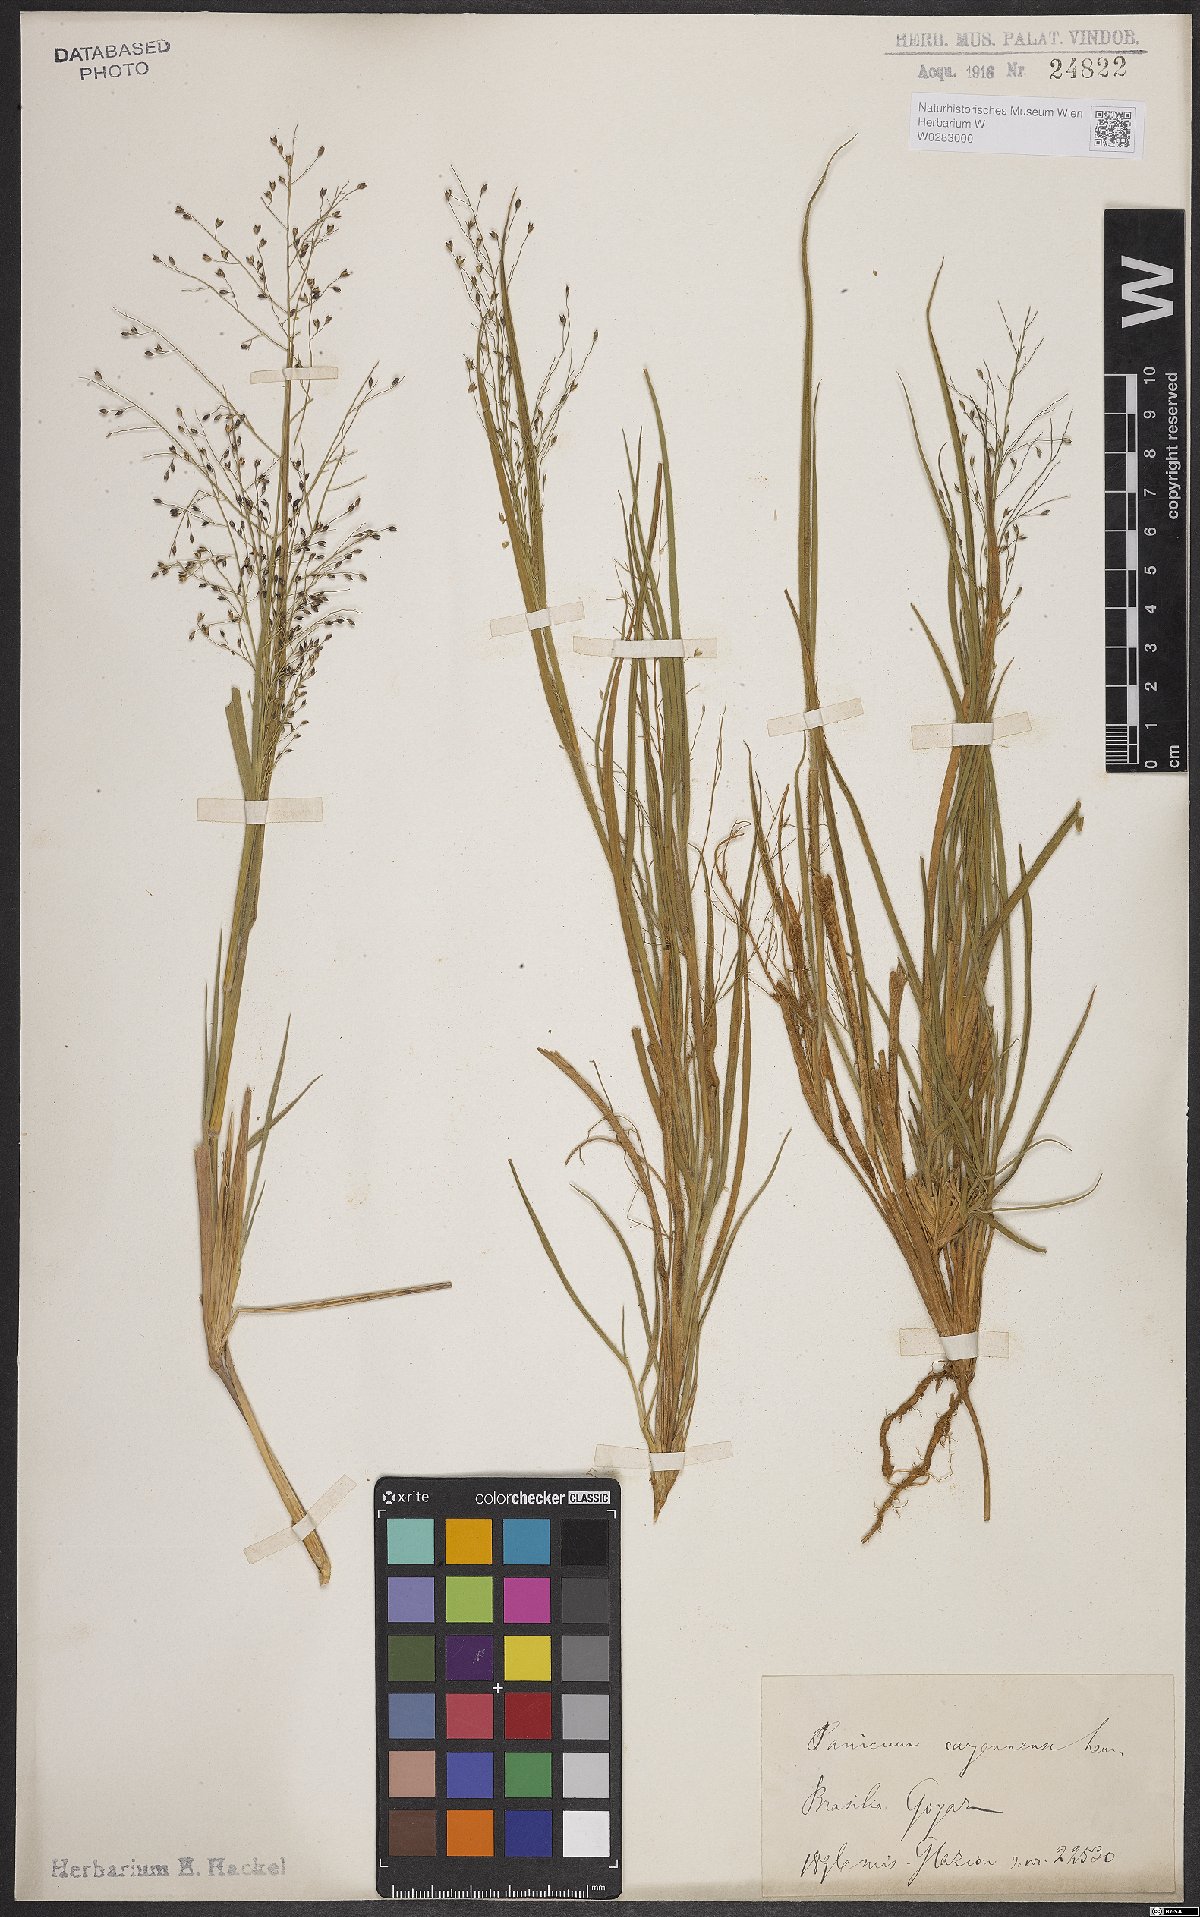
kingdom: Plantae
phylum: Tracheophyta
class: Liliopsida
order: Poales
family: Poaceae
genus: Panicum
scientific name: Panicum cayennense
